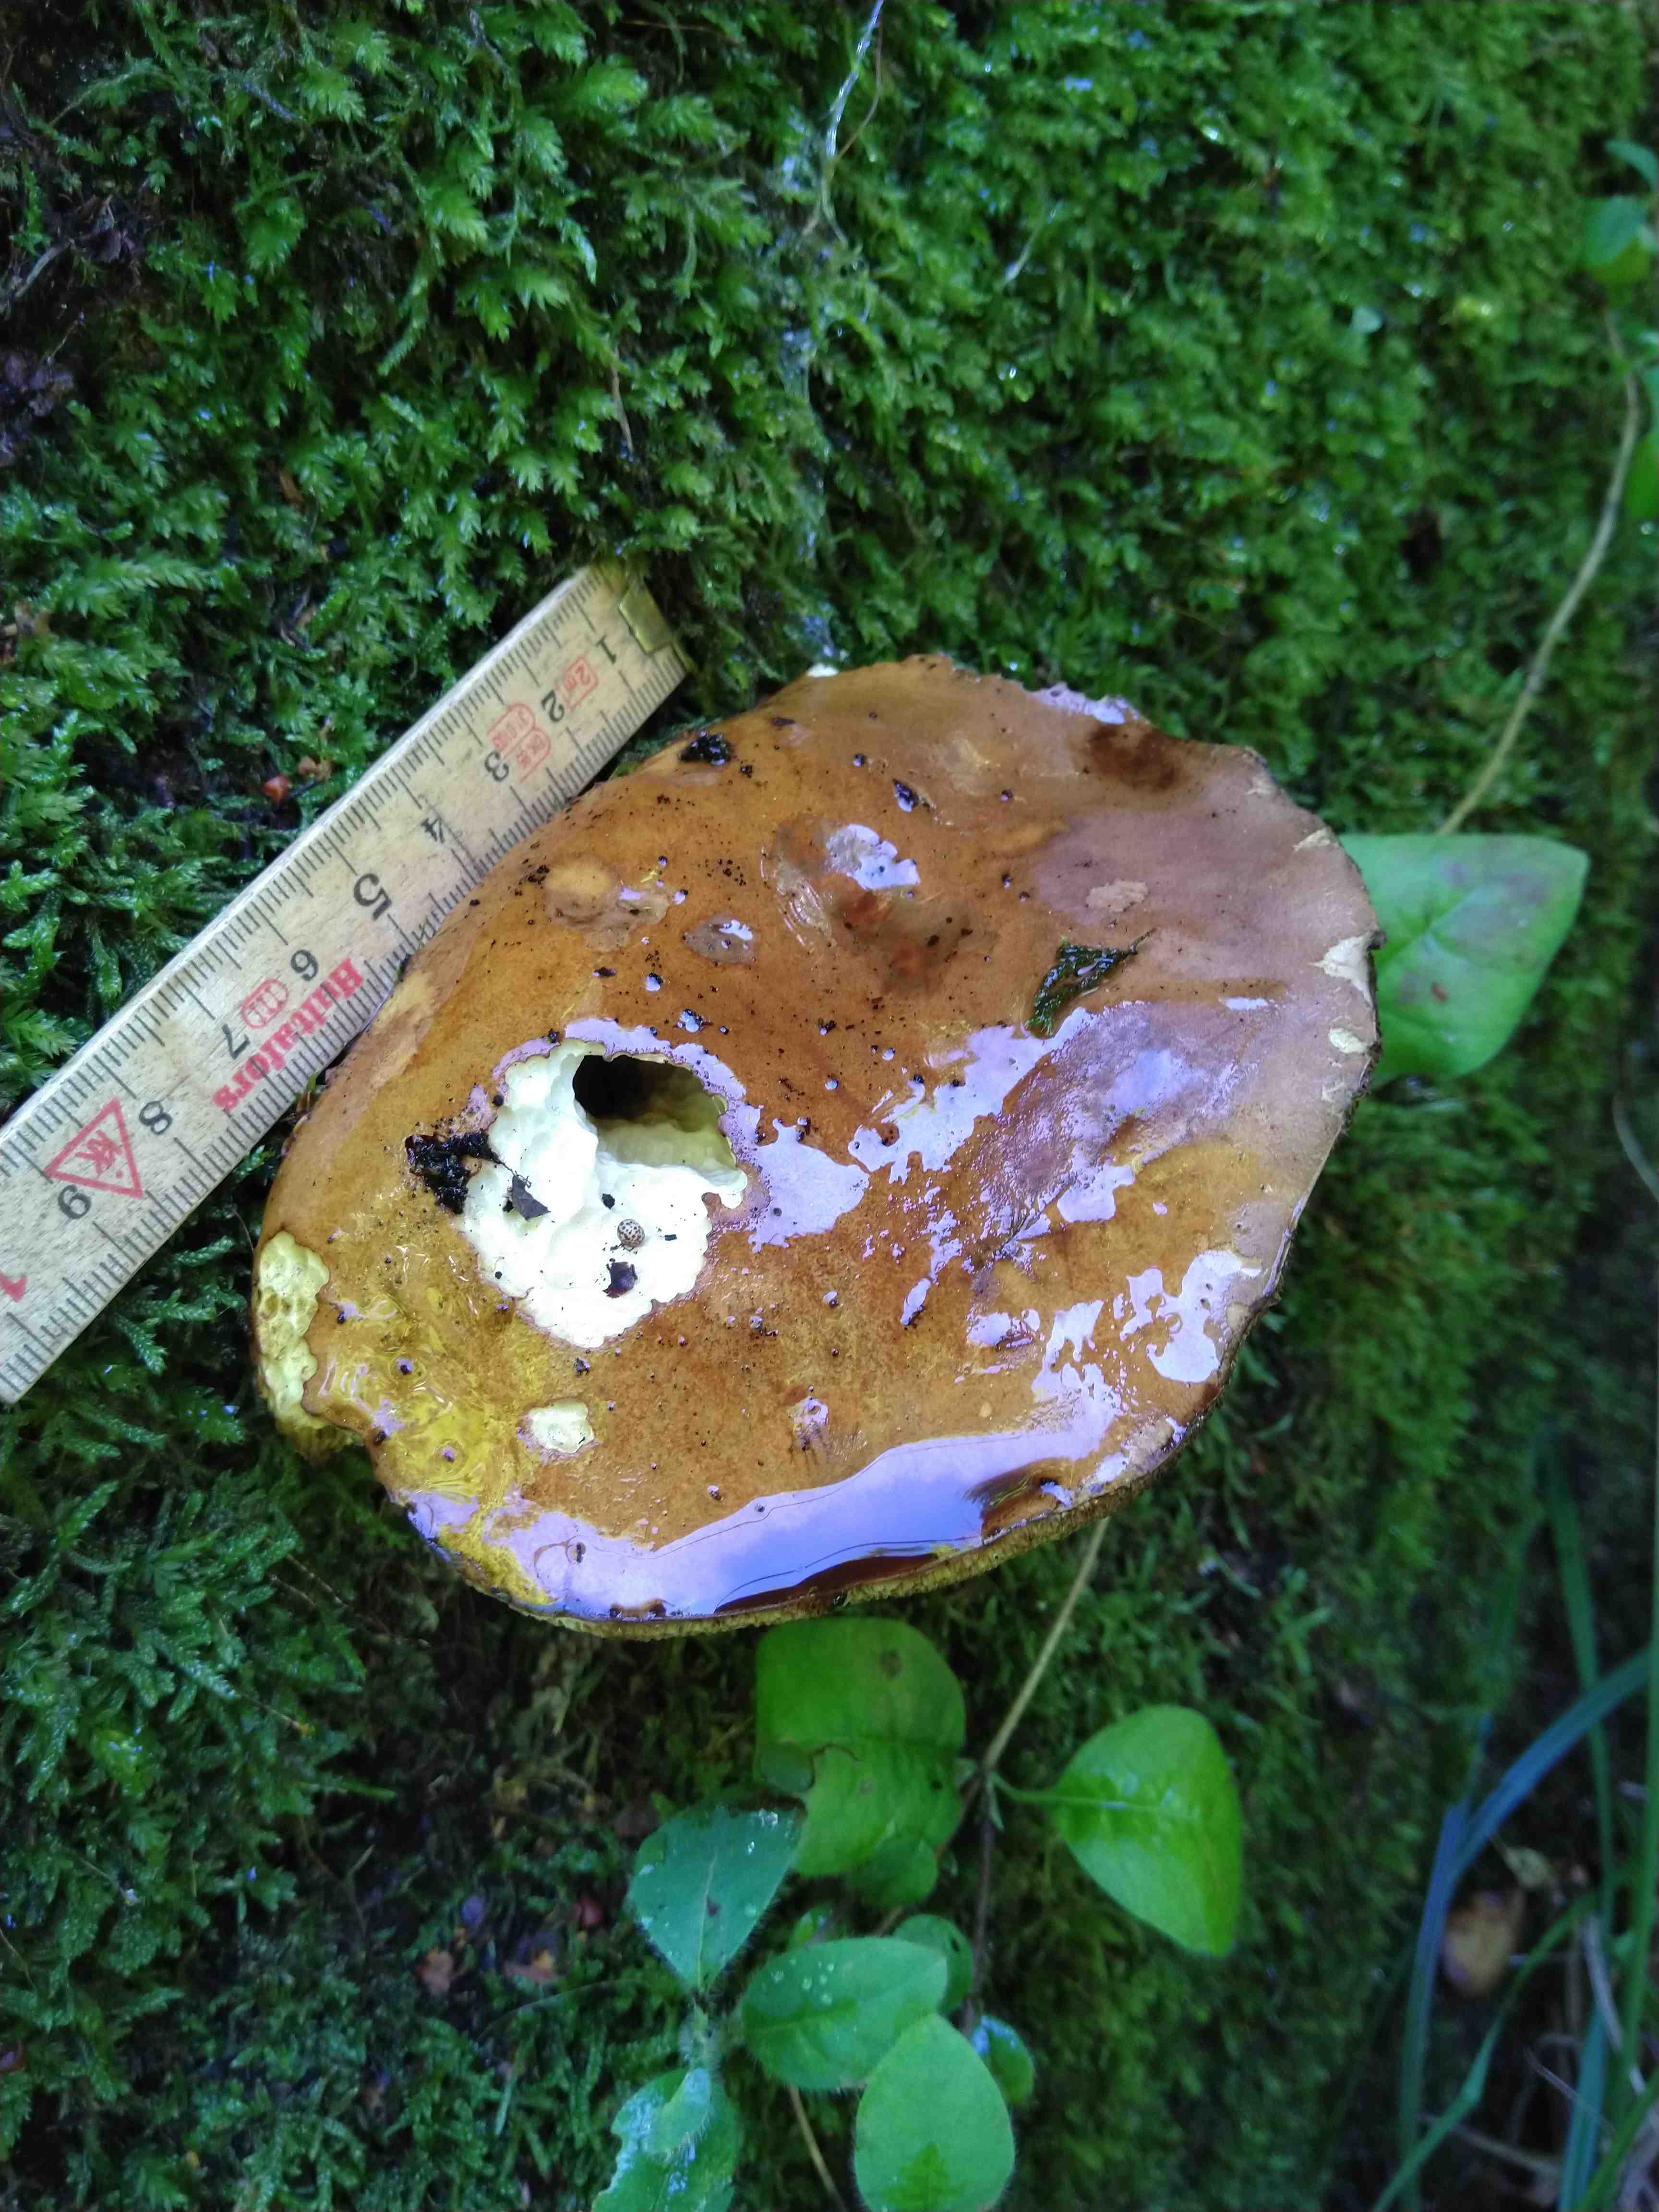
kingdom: Fungi
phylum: Basidiomycota
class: Agaricomycetes
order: Boletales
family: Boletaceae
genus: Imleria
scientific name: Imleria badia
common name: brunstokket rørhat
